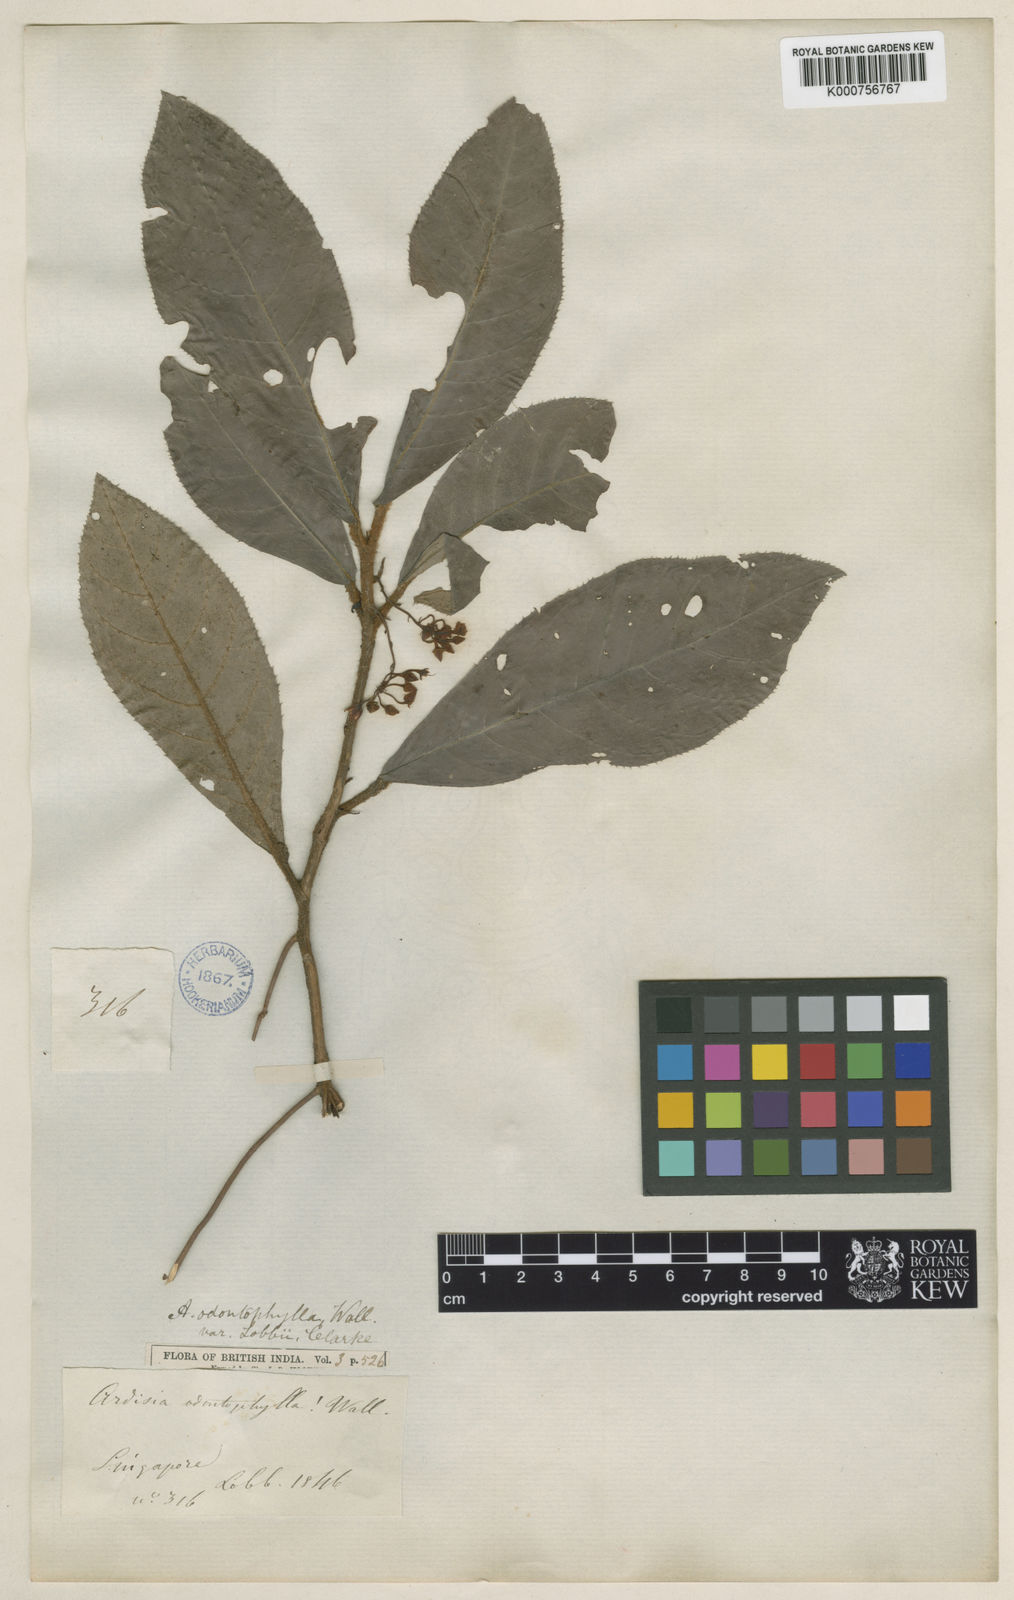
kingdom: Plantae
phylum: Tracheophyta
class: Magnoliopsida
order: Ericales
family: Primulaceae
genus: Ardisia
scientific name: Ardisia demissa
